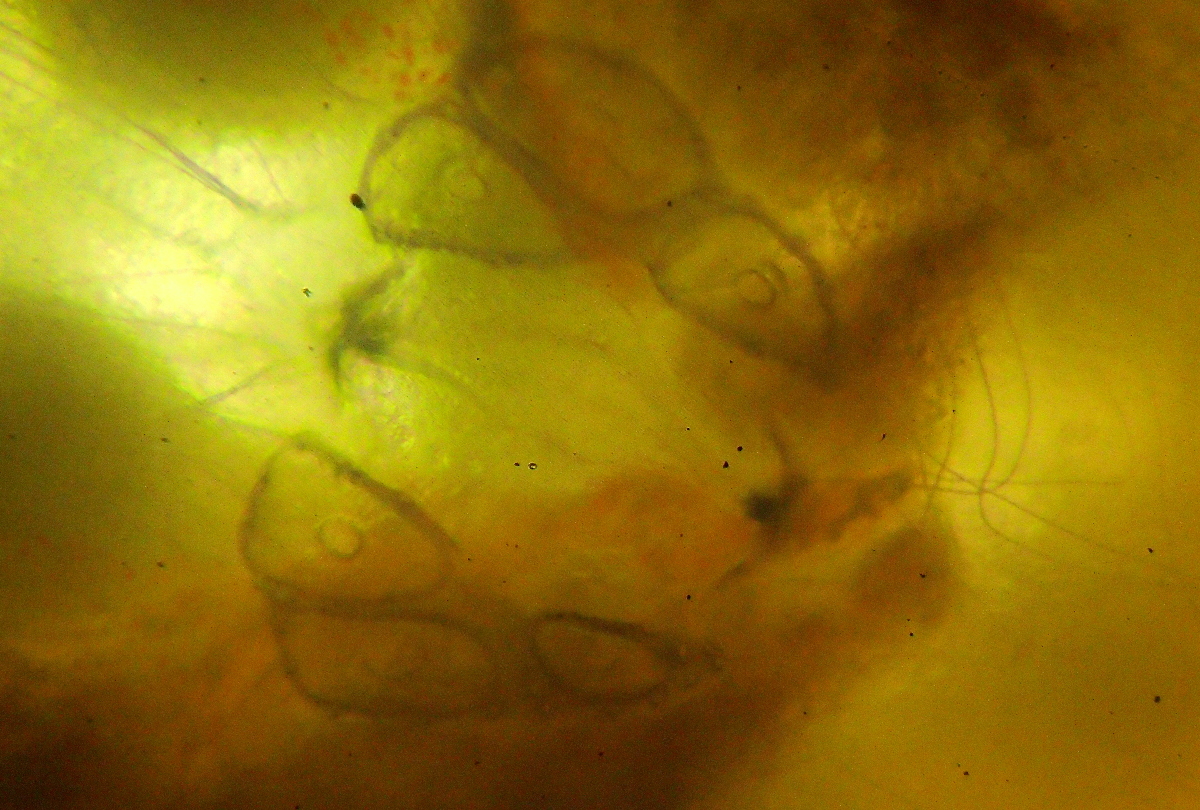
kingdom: Animalia
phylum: Arthropoda
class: Arachnida
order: Trombidiformes
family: Hydrodromidae
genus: Hydrodroma
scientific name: Hydrodroma despiciens
